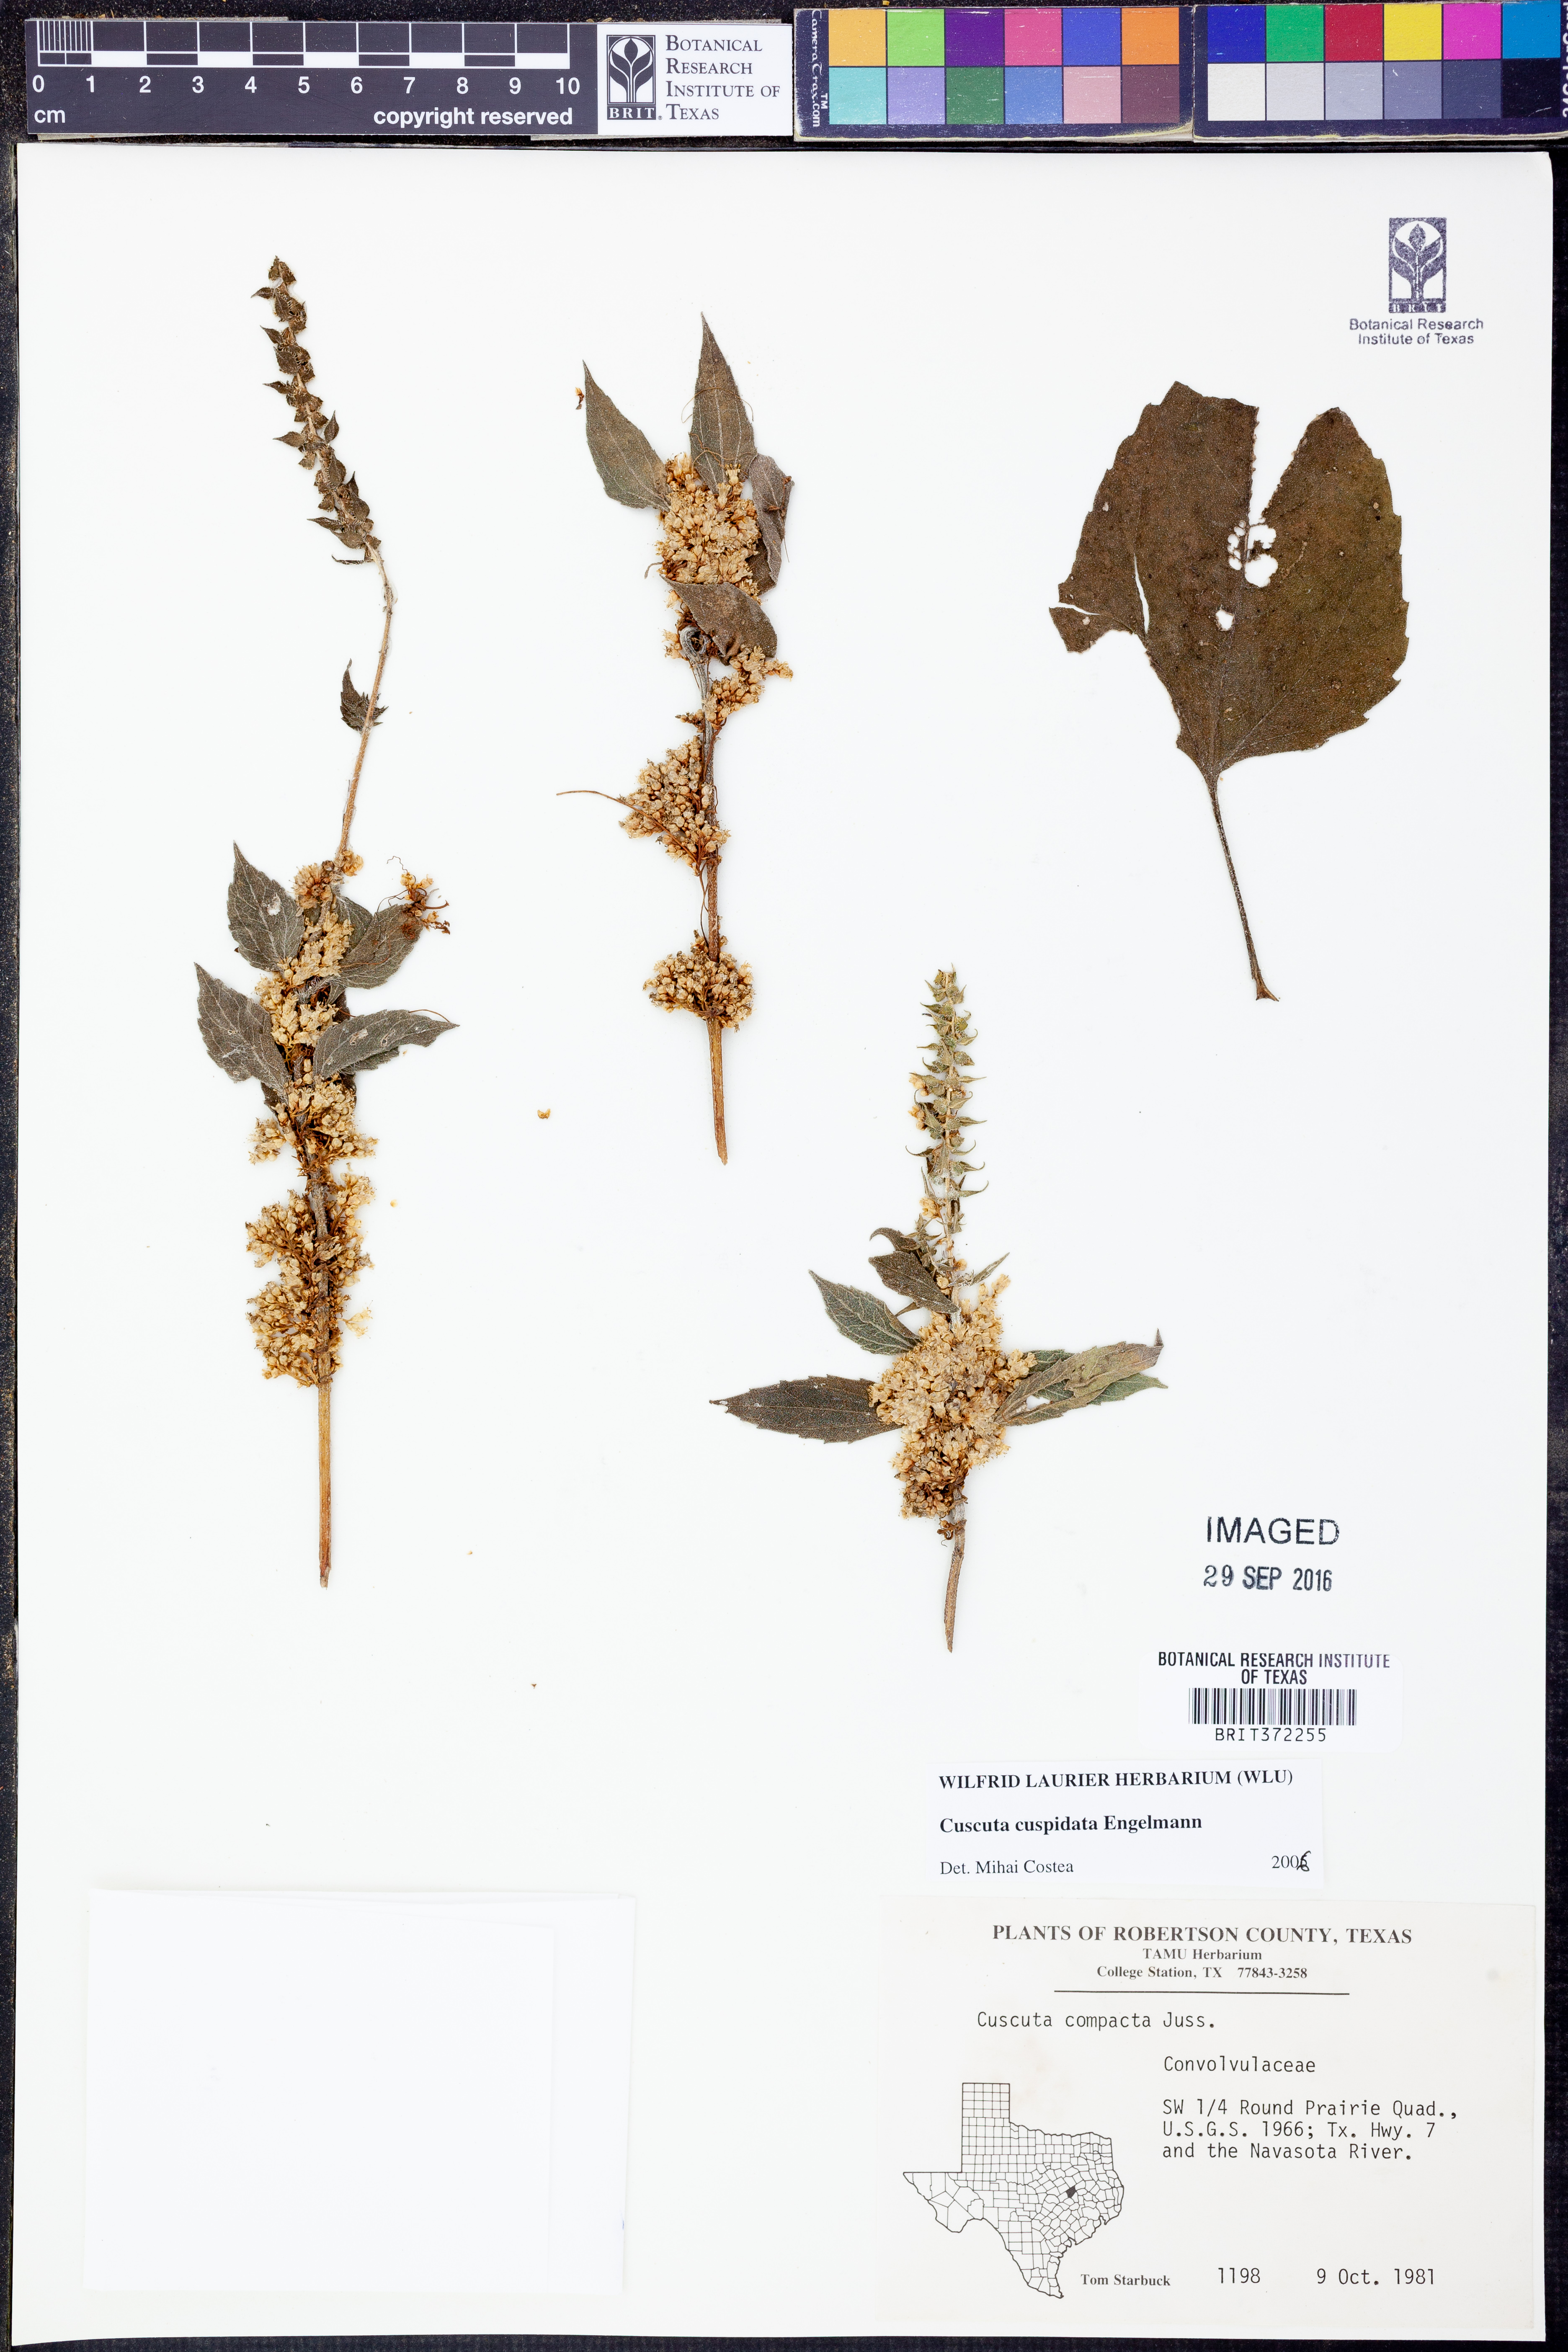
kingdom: Plantae
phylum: Tracheophyta
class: Magnoliopsida
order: Solanales
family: Convolvulaceae
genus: Cuscuta
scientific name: Cuscuta cuspidata
